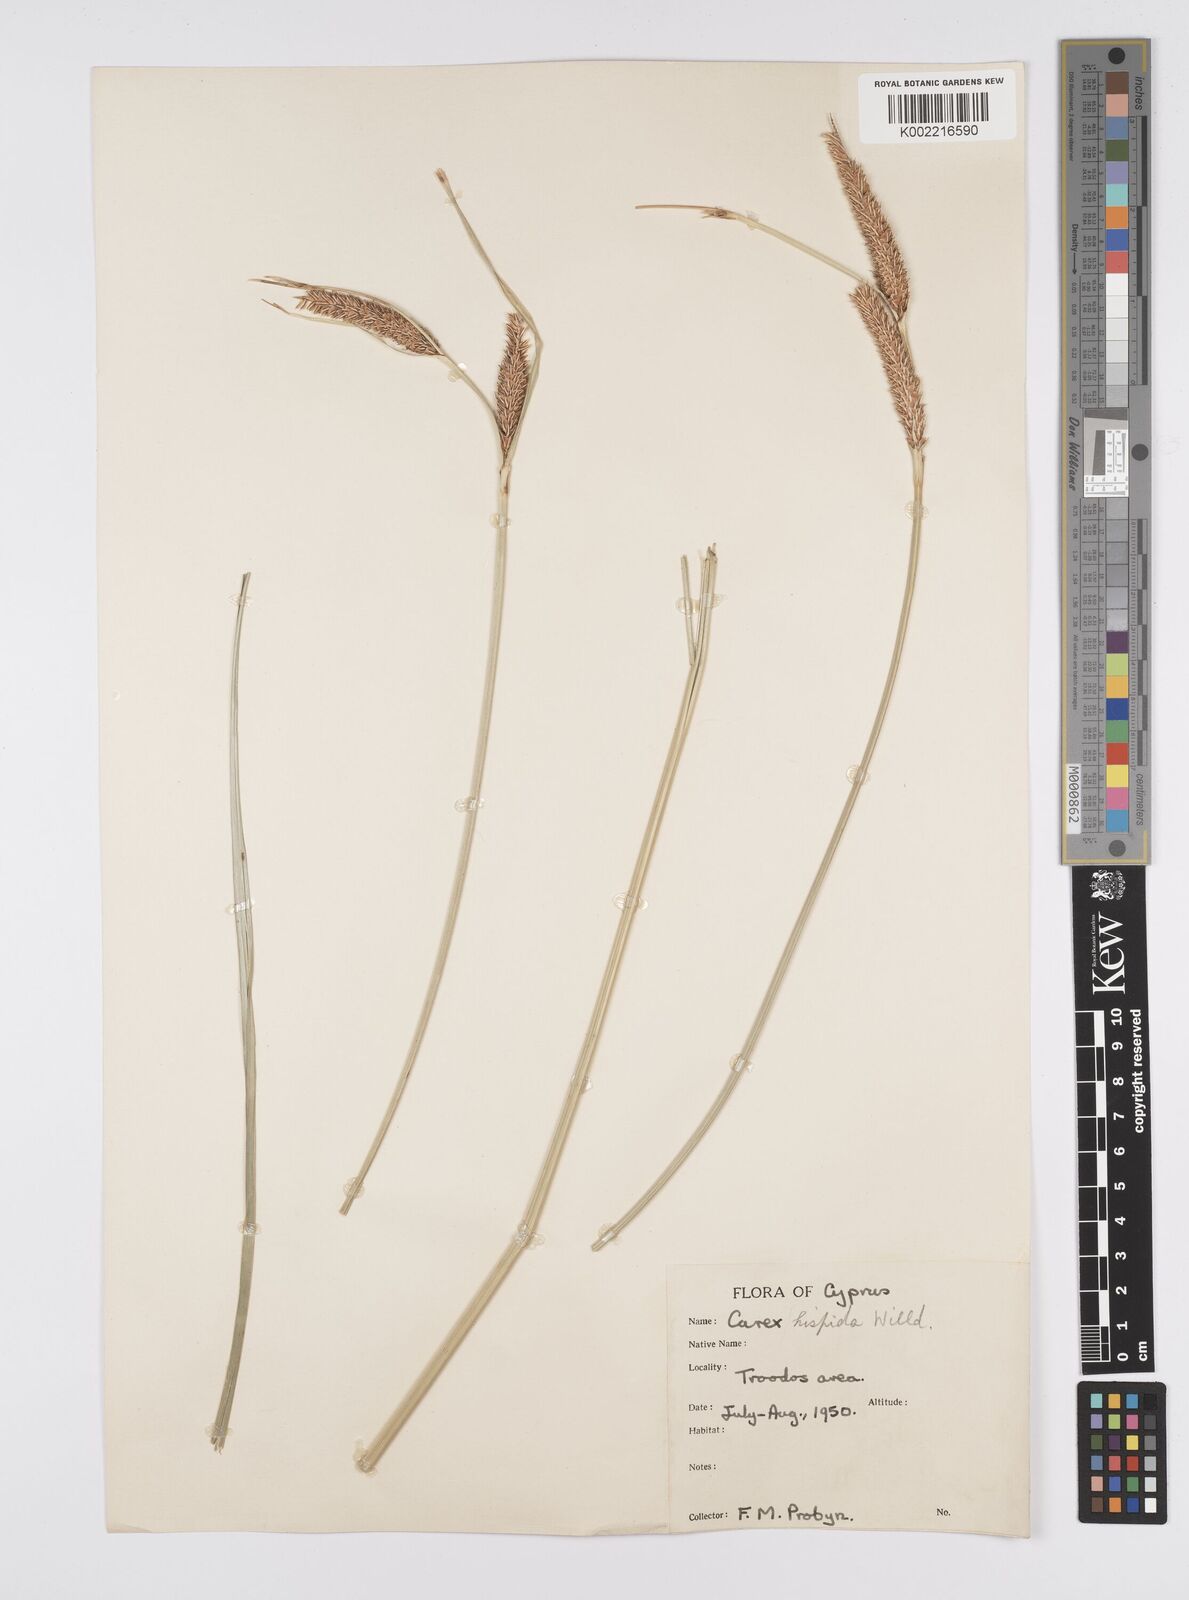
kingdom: Plantae
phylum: Tracheophyta
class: Liliopsida
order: Poales
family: Cyperaceae
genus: Carex
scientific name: Carex hispida
